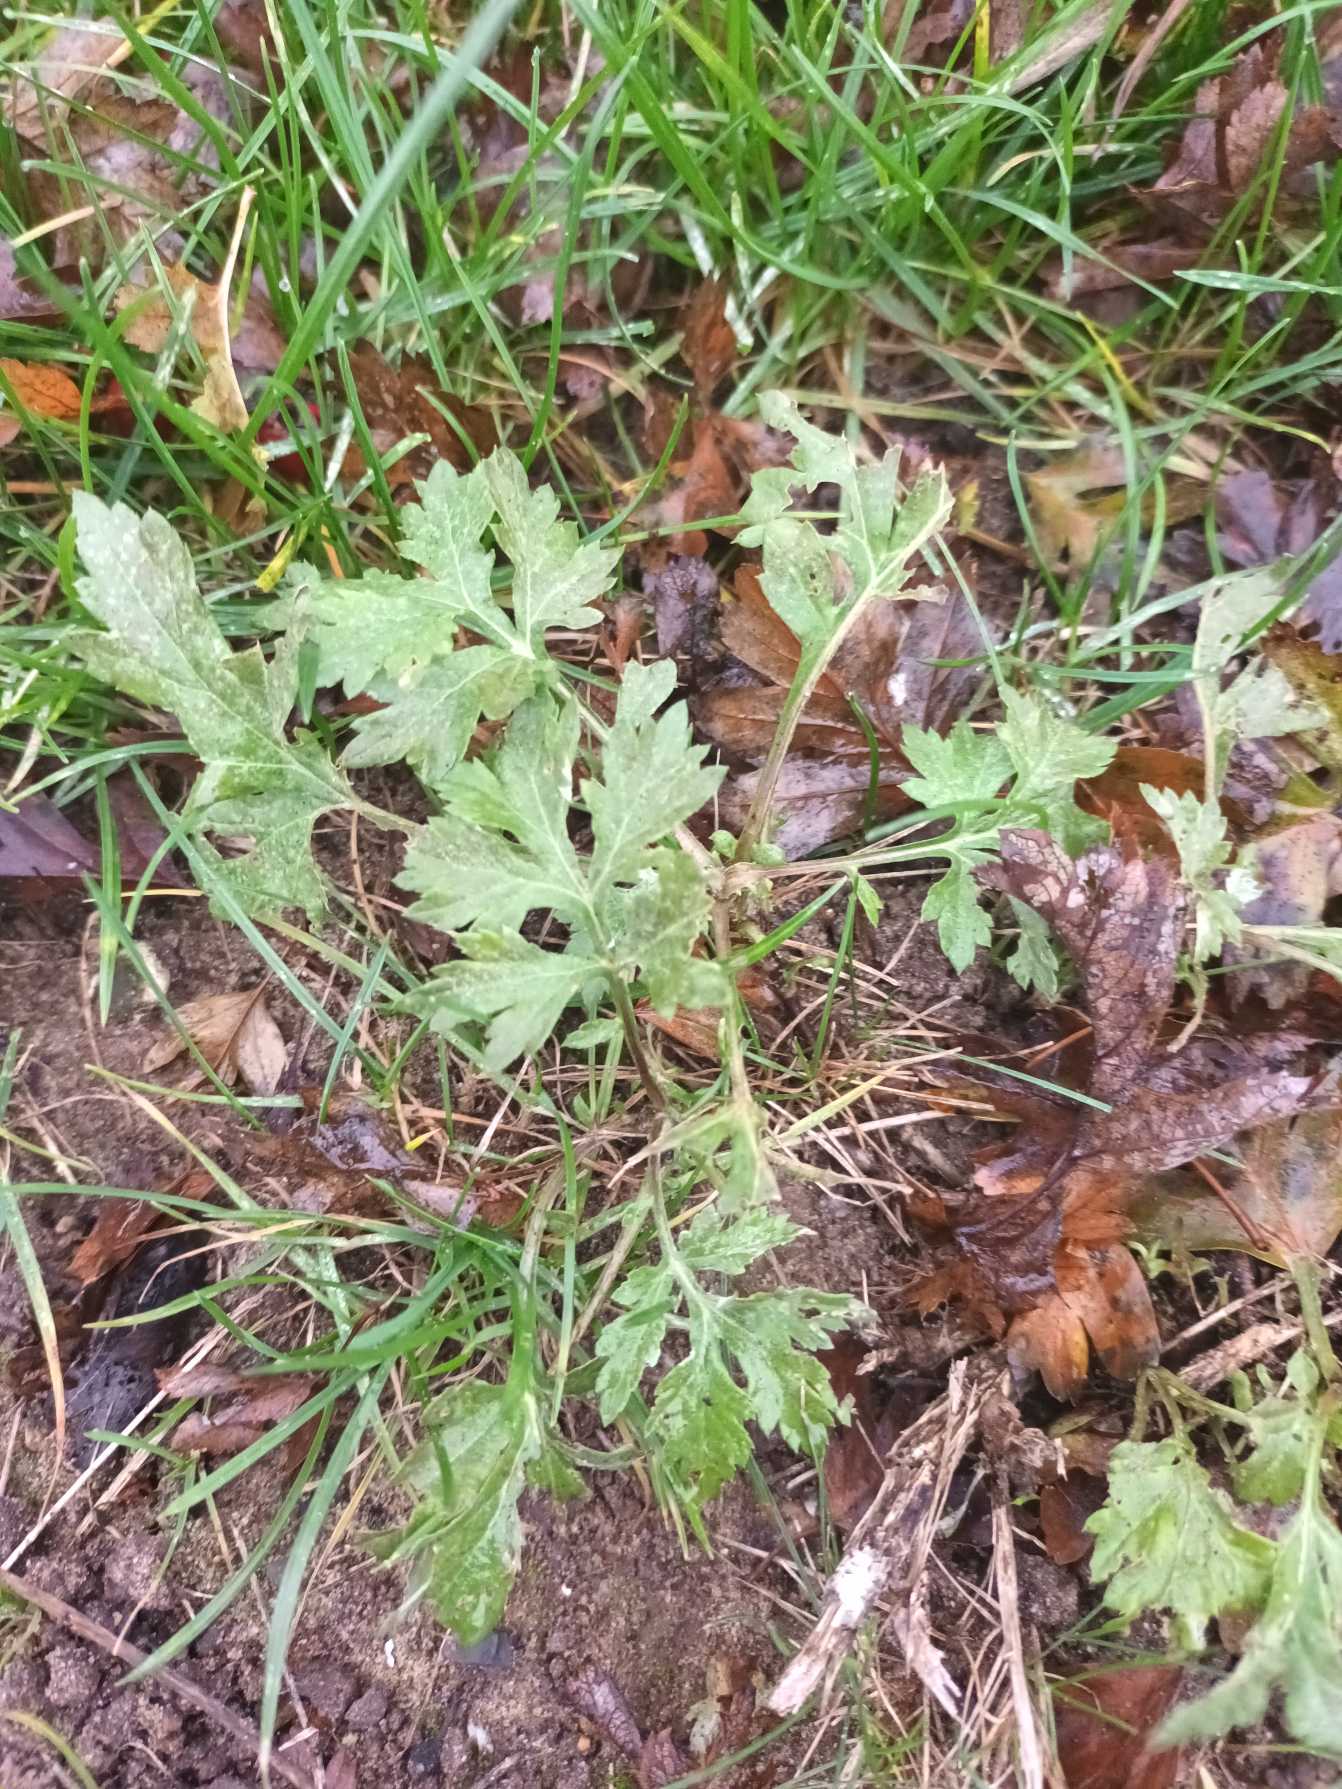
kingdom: Plantae
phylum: Tracheophyta
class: Magnoliopsida
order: Asterales
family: Asteraceae
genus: Artemisia
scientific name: Artemisia vulgaris
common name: Grå-bynke
